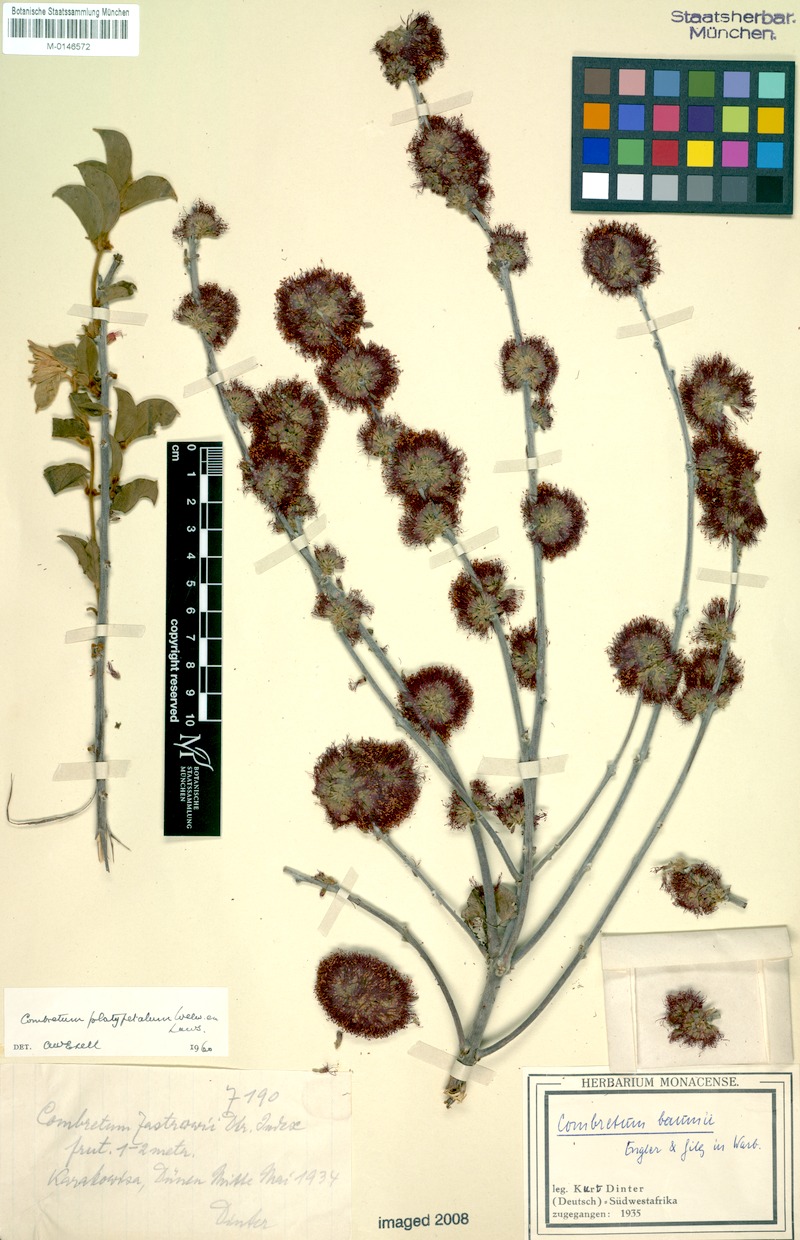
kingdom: Plantae
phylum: Tracheophyta
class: Magnoliopsida
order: Myrtales
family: Combretaceae
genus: Combretum
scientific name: Combretum platypetalum
